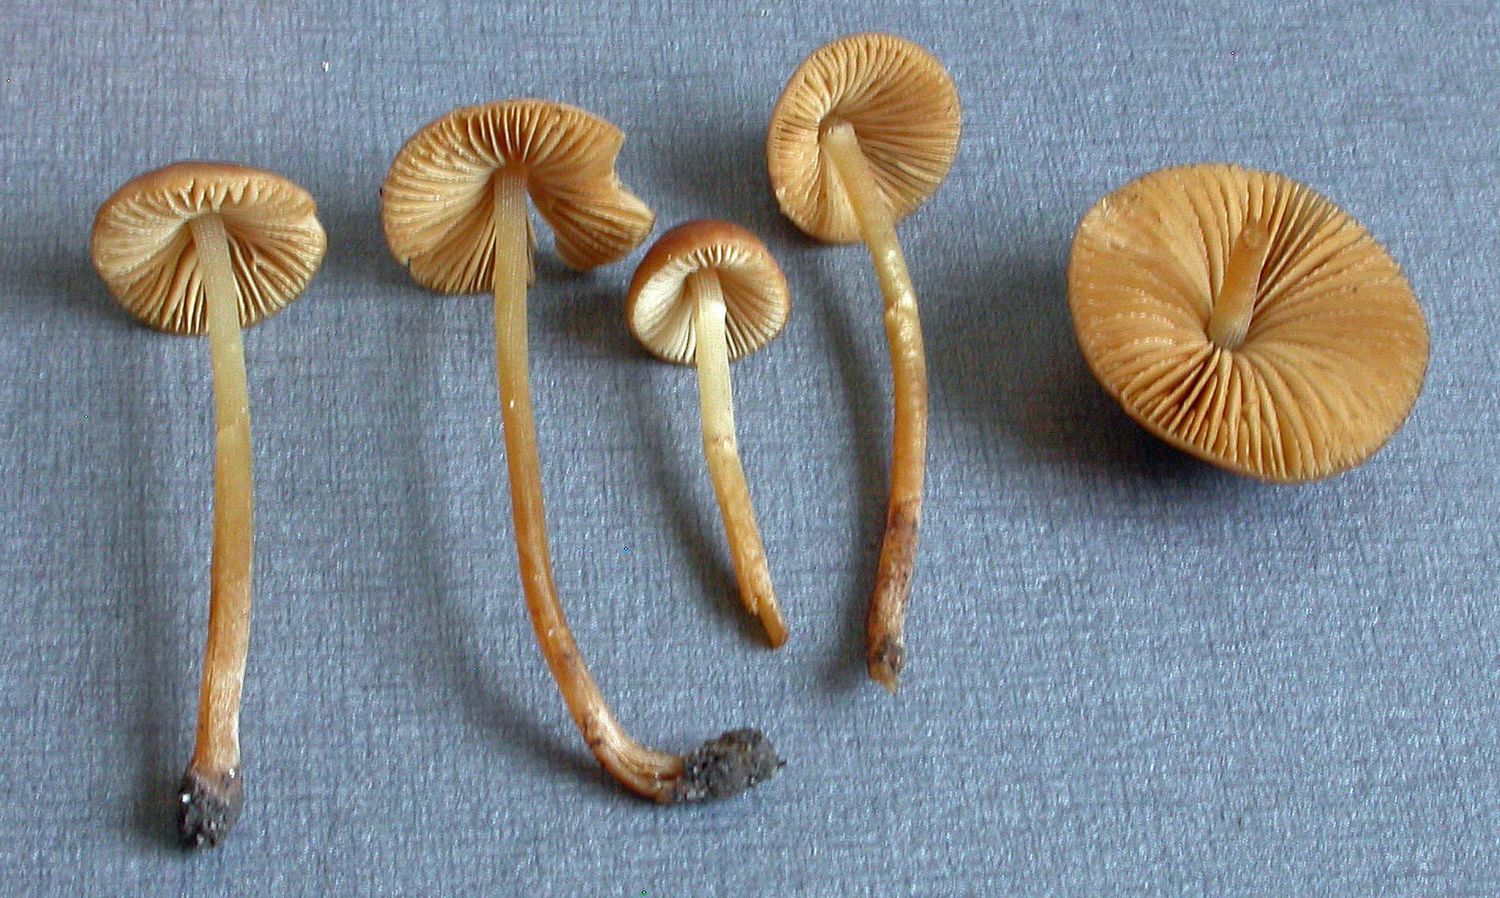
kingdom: Fungi
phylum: Basidiomycota
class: Agaricomycetes
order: Agaricales
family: Bolbitiaceae
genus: Conocybe
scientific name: Conocybe rickeniana
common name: kastaniebrun keglehat
